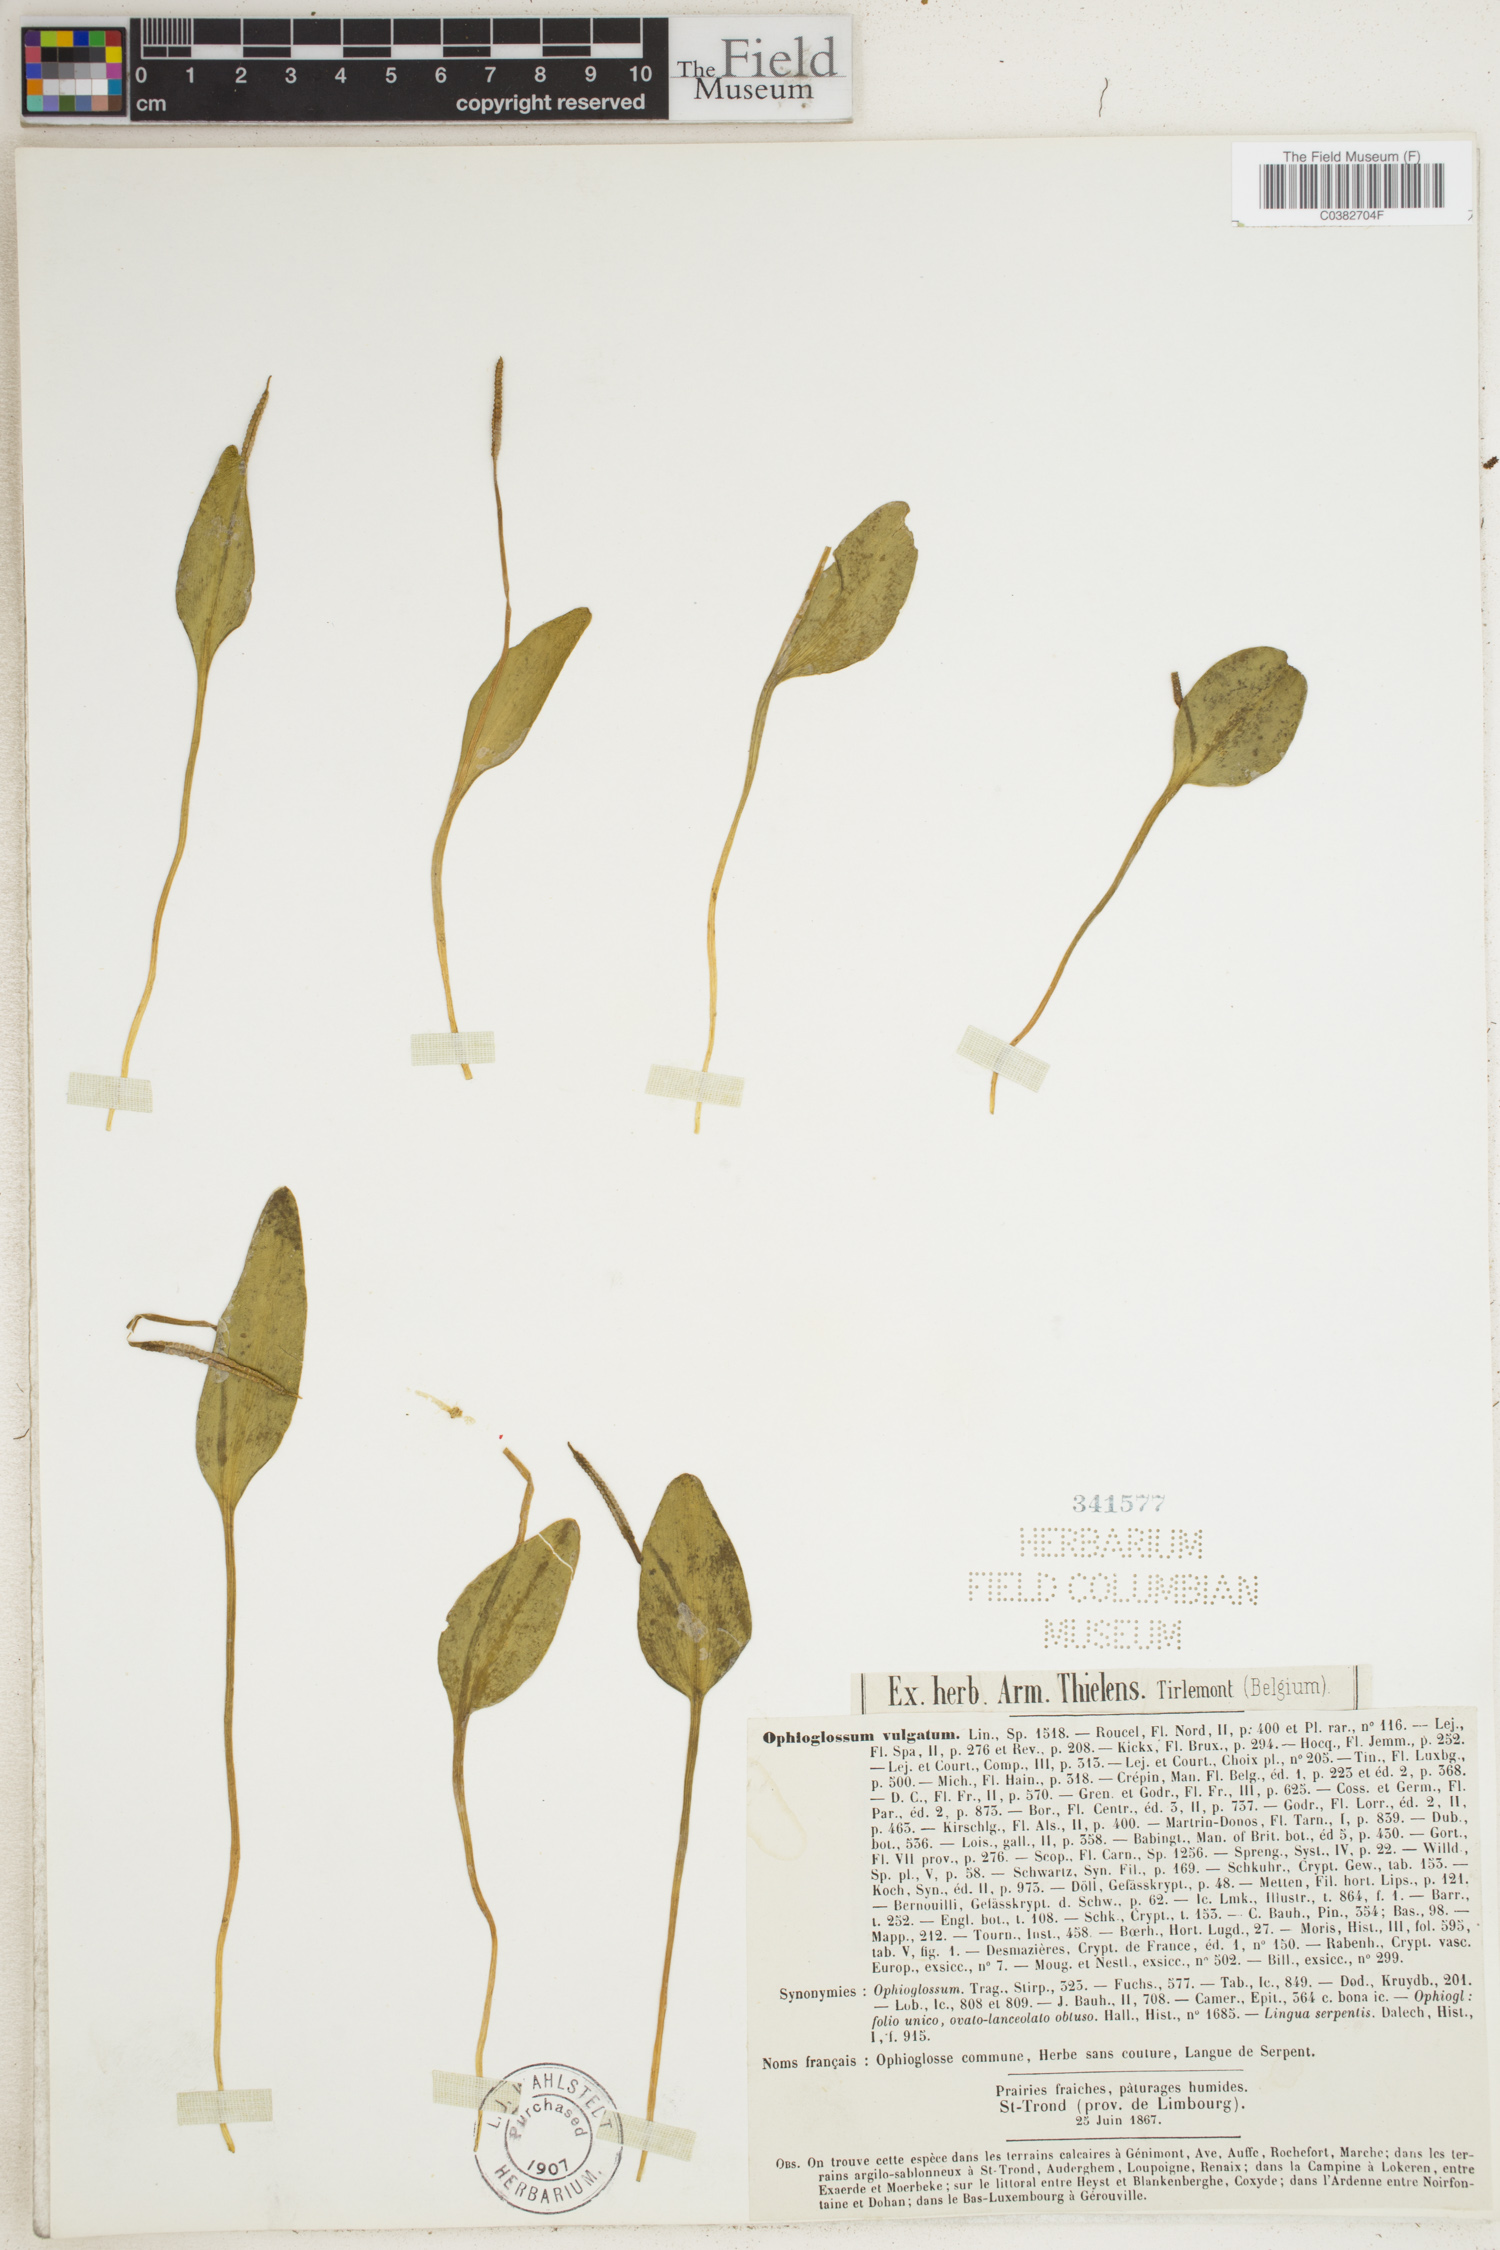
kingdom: Plantae
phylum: Tracheophyta
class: Polypodiopsida
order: Ophioglossales
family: Ophioglossaceae
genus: Ophioglossum
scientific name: Ophioglossum vulgatum
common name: Adder's-tongue
